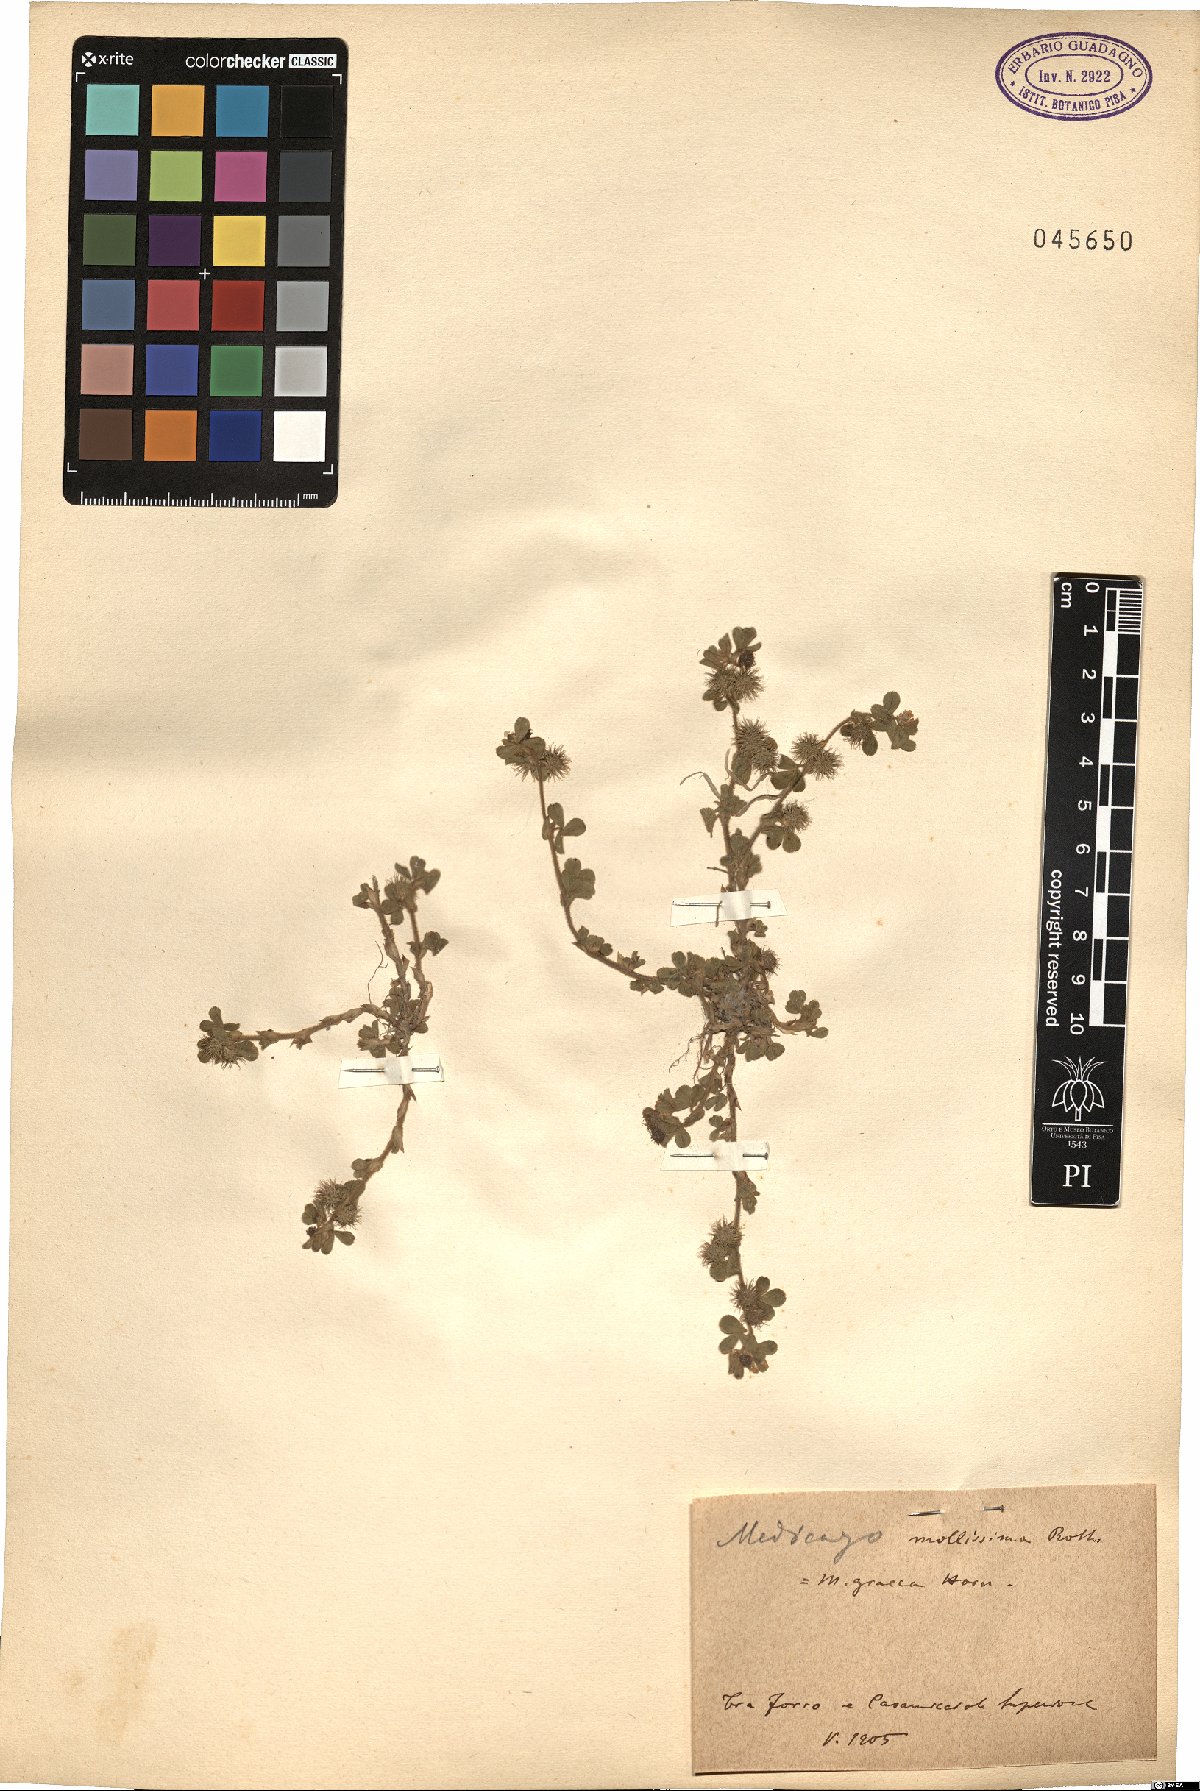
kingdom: Plantae
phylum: Tracheophyta
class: Magnoliopsida
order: Fabales
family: Fabaceae
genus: Medicago
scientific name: Medicago minima
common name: Little bur-clover
